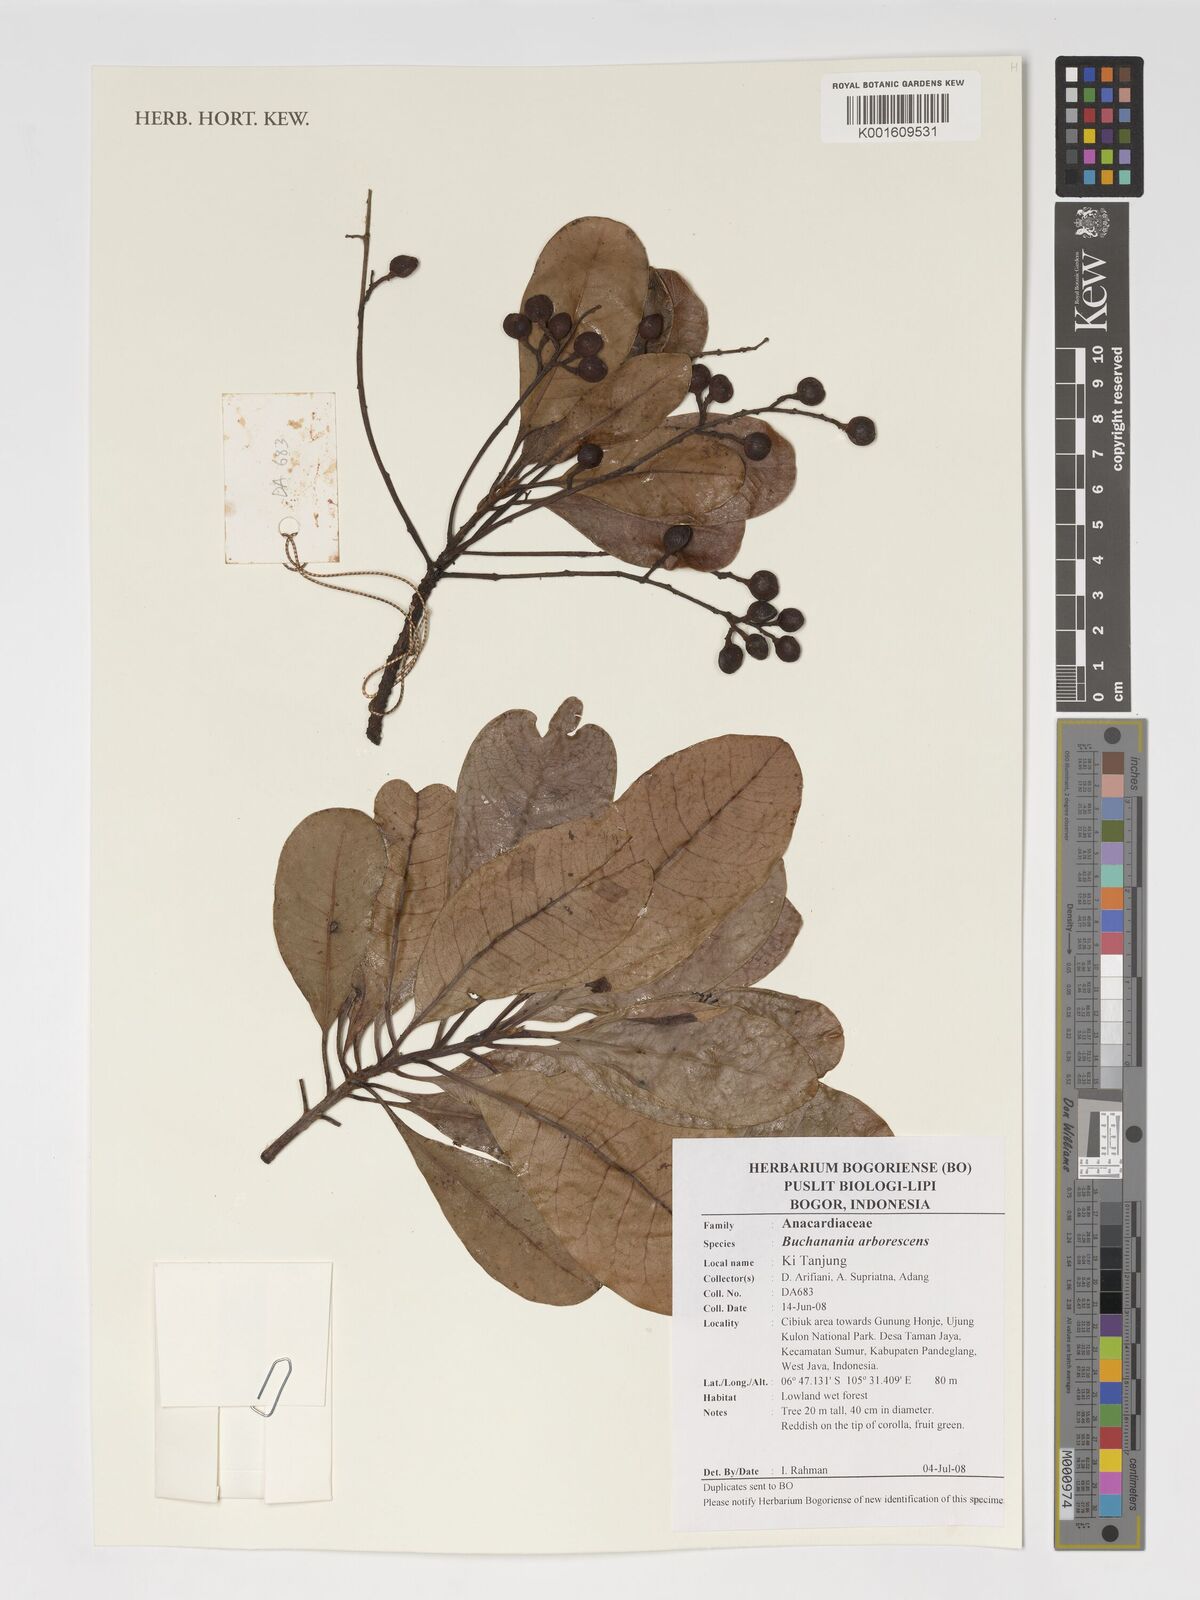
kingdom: Plantae
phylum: Tracheophyta
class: Magnoliopsida
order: Sapindales
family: Anacardiaceae
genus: Buchanania
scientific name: Buchanania arborescens
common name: Sparrow’s mango
